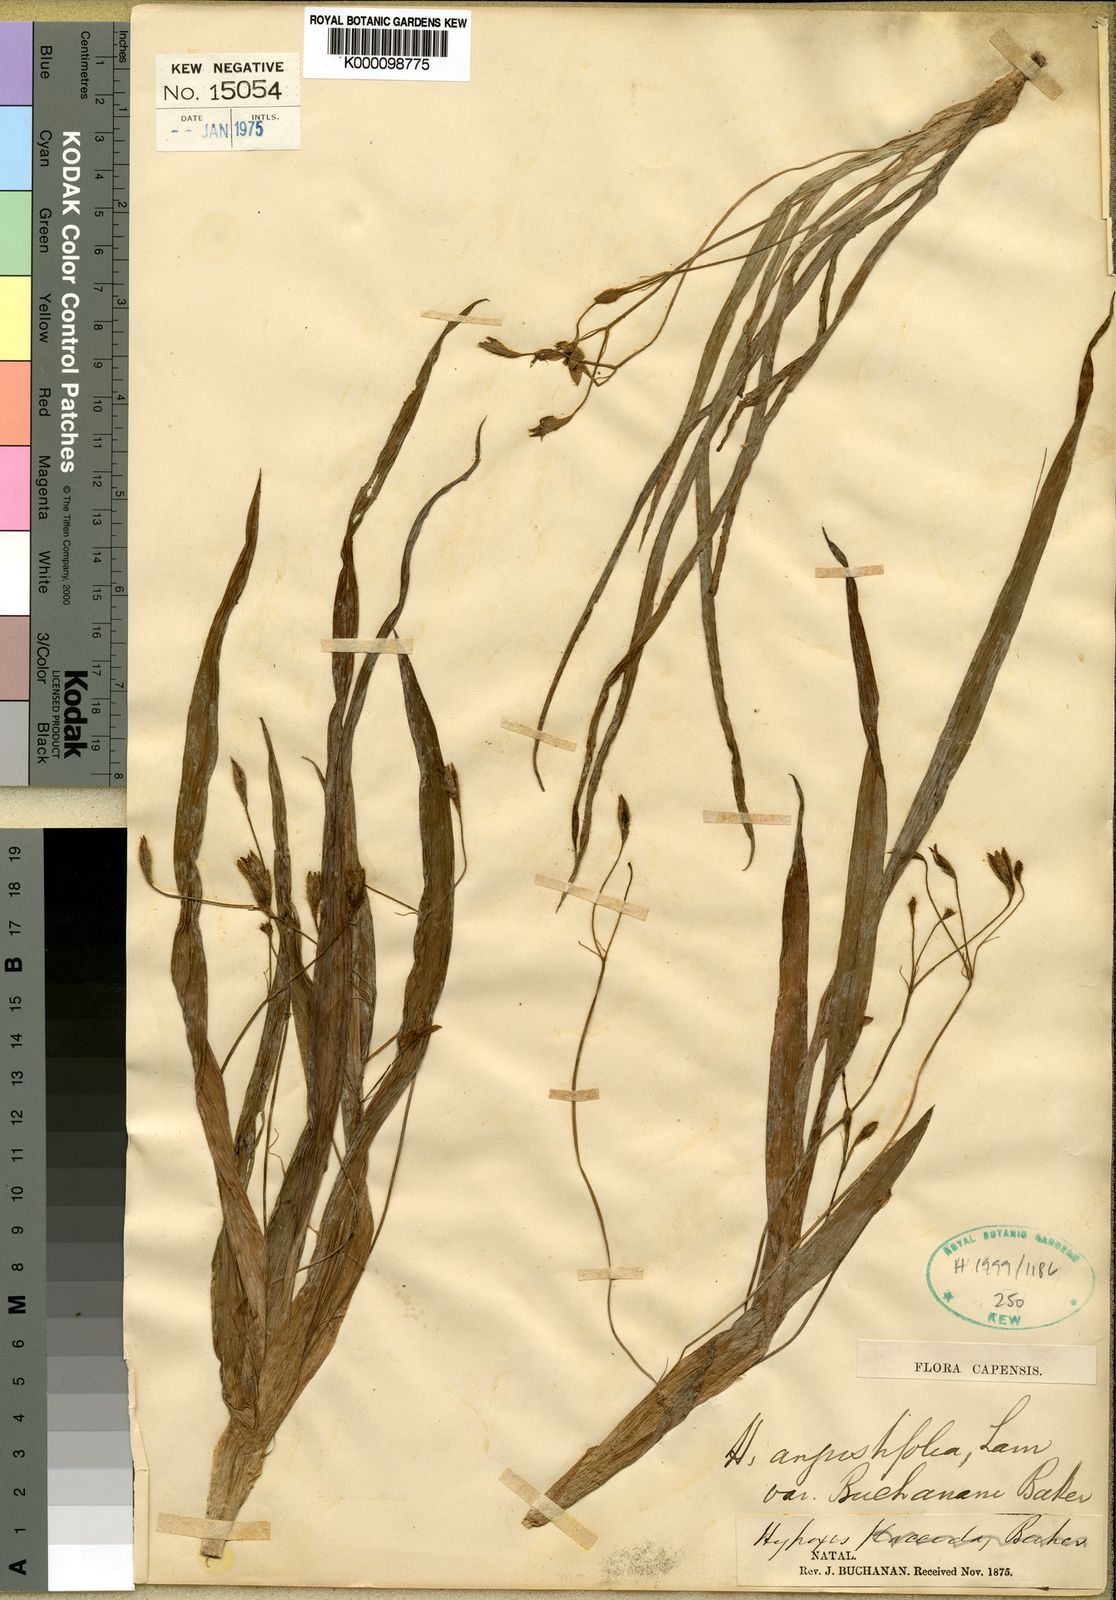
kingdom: Plantae
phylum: Tracheophyta
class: Liliopsida
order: Asparagales
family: Hypoxidaceae
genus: Hypoxis
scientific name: Hypoxis angustifolia
